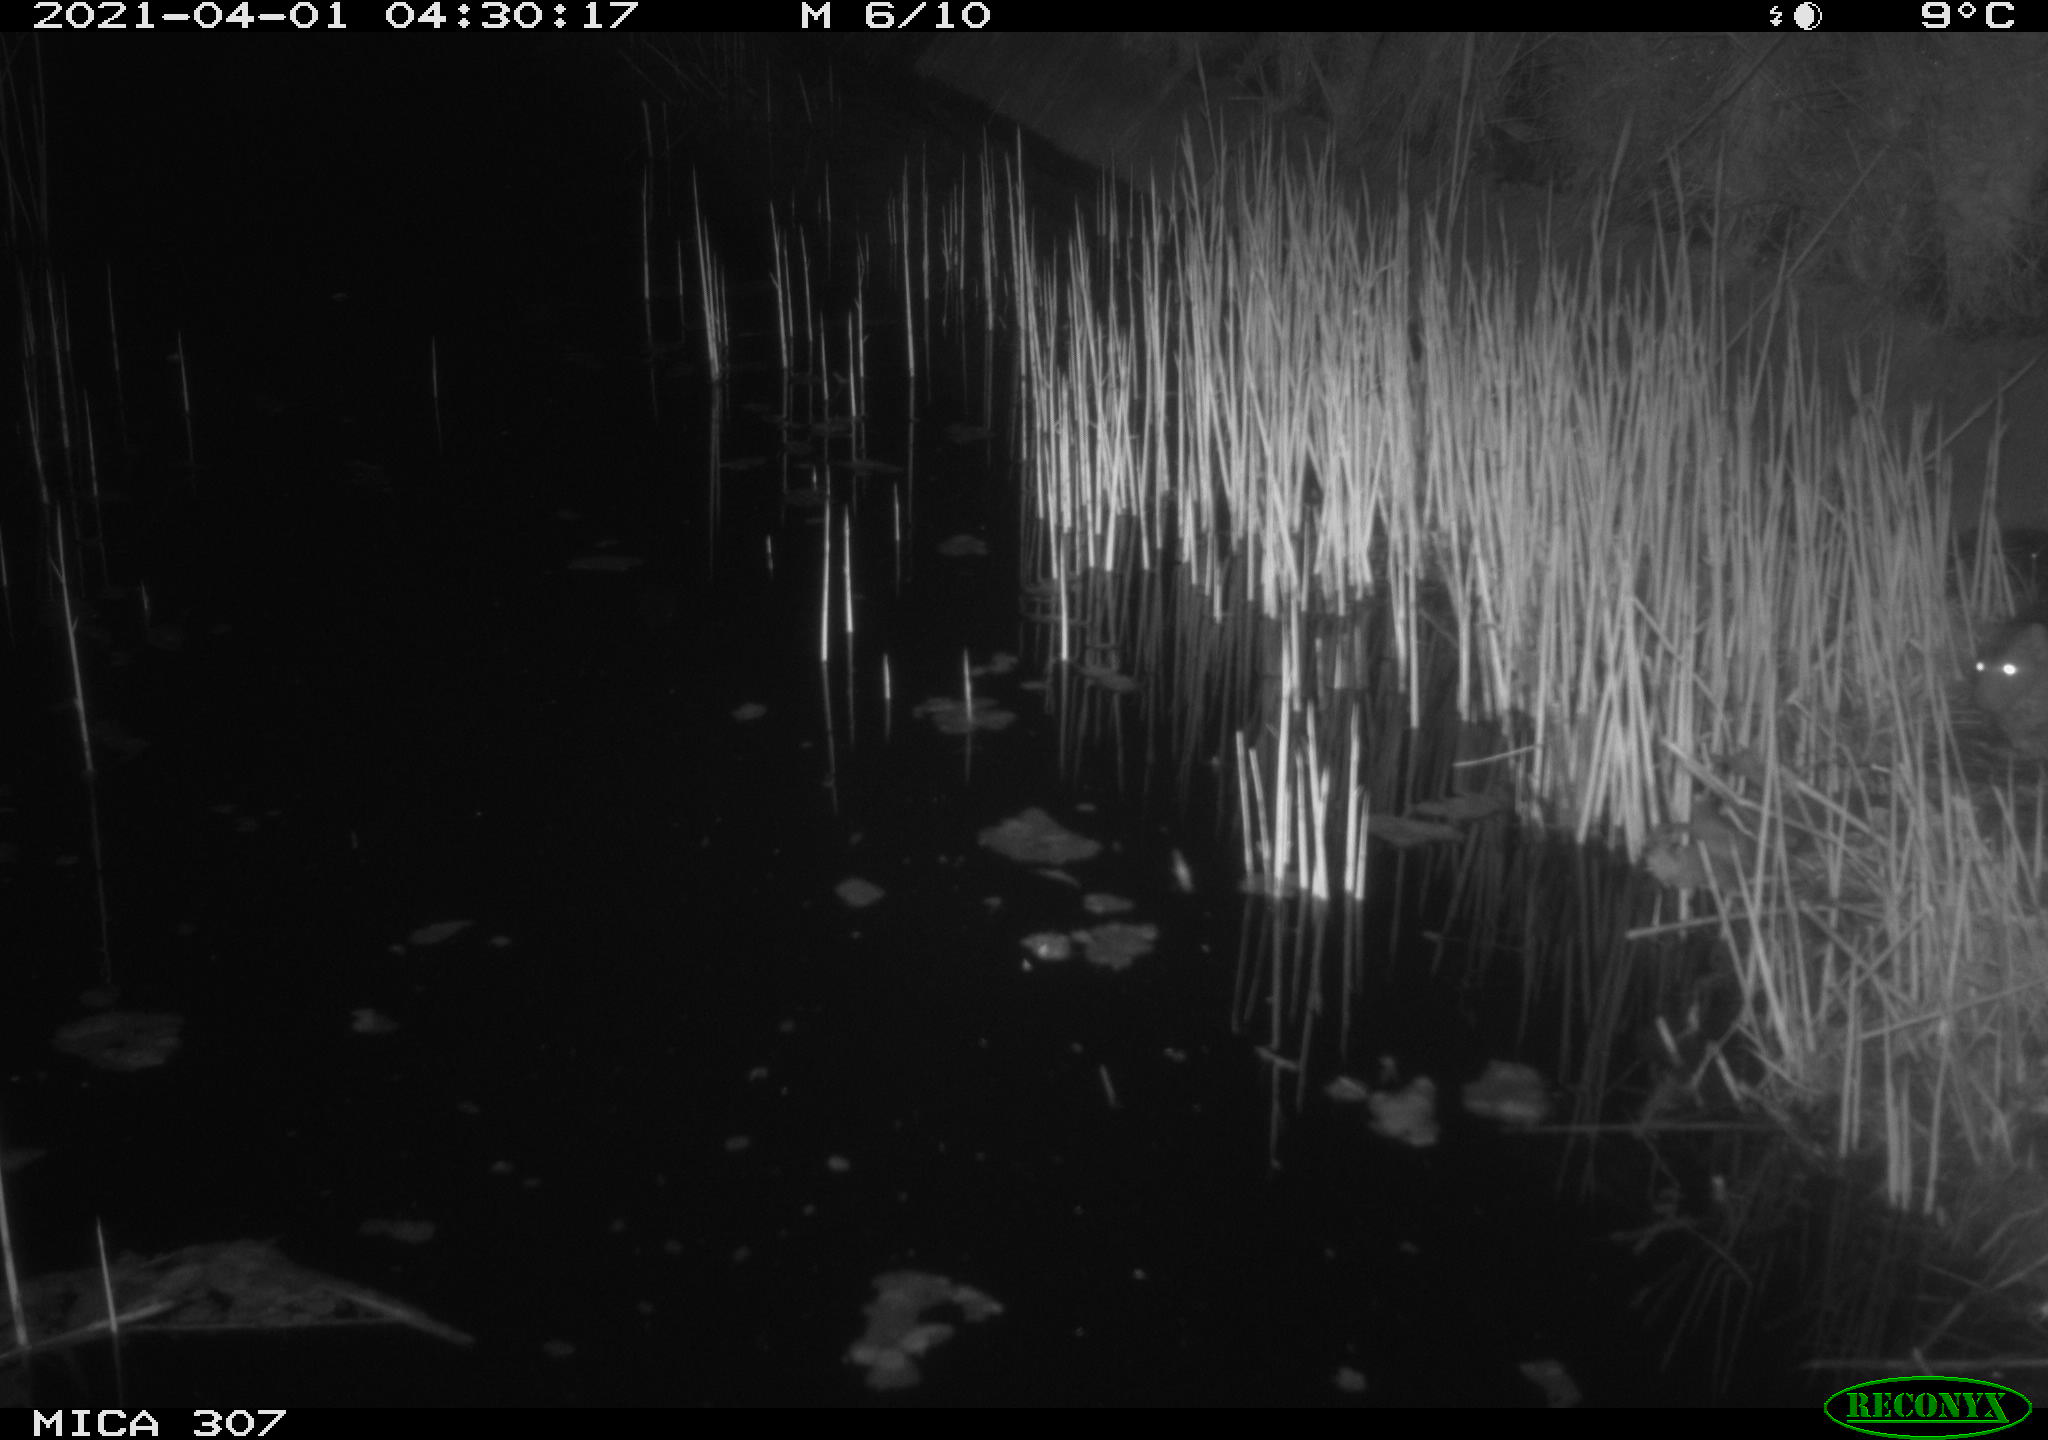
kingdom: Animalia
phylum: Chordata
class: Mammalia
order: Rodentia
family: Muridae
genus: Rattus
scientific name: Rattus norvegicus
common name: Brown rat
